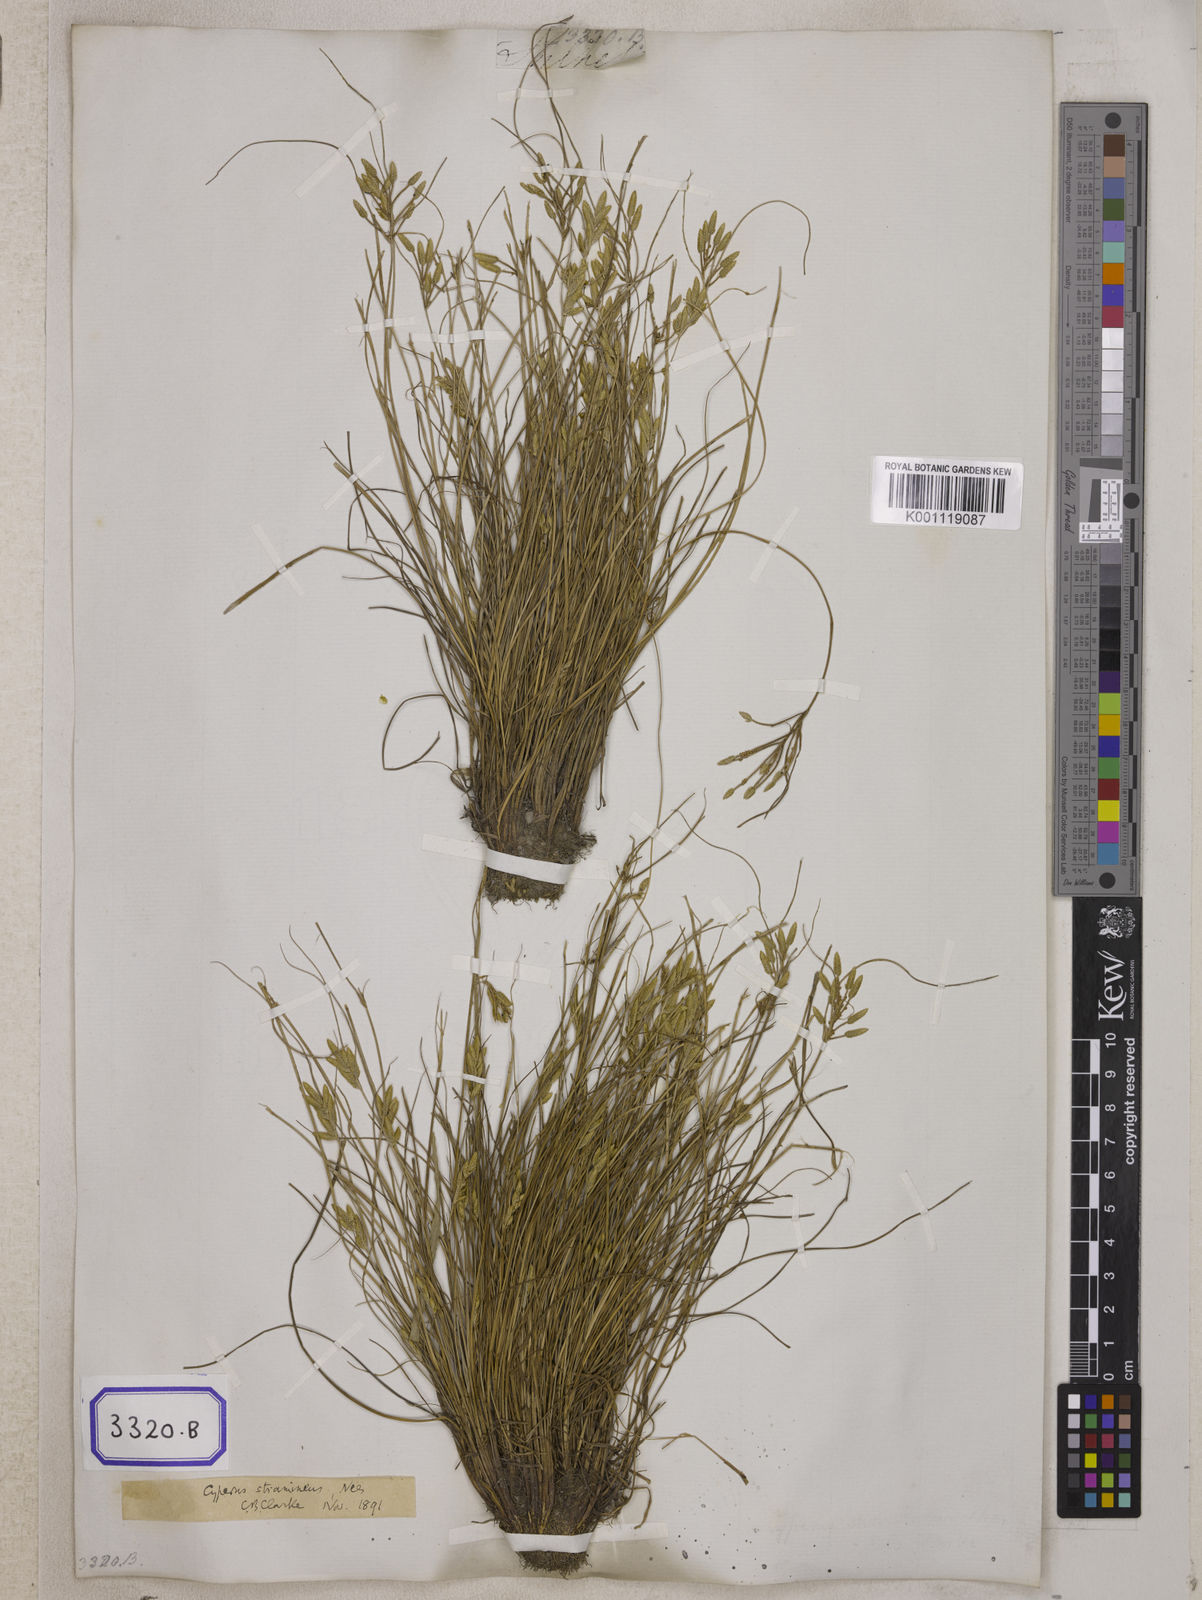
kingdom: Plantae
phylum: Tracheophyta
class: Liliopsida
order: Poales
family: Cyperaceae
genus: Cyperus
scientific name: Cyperus
